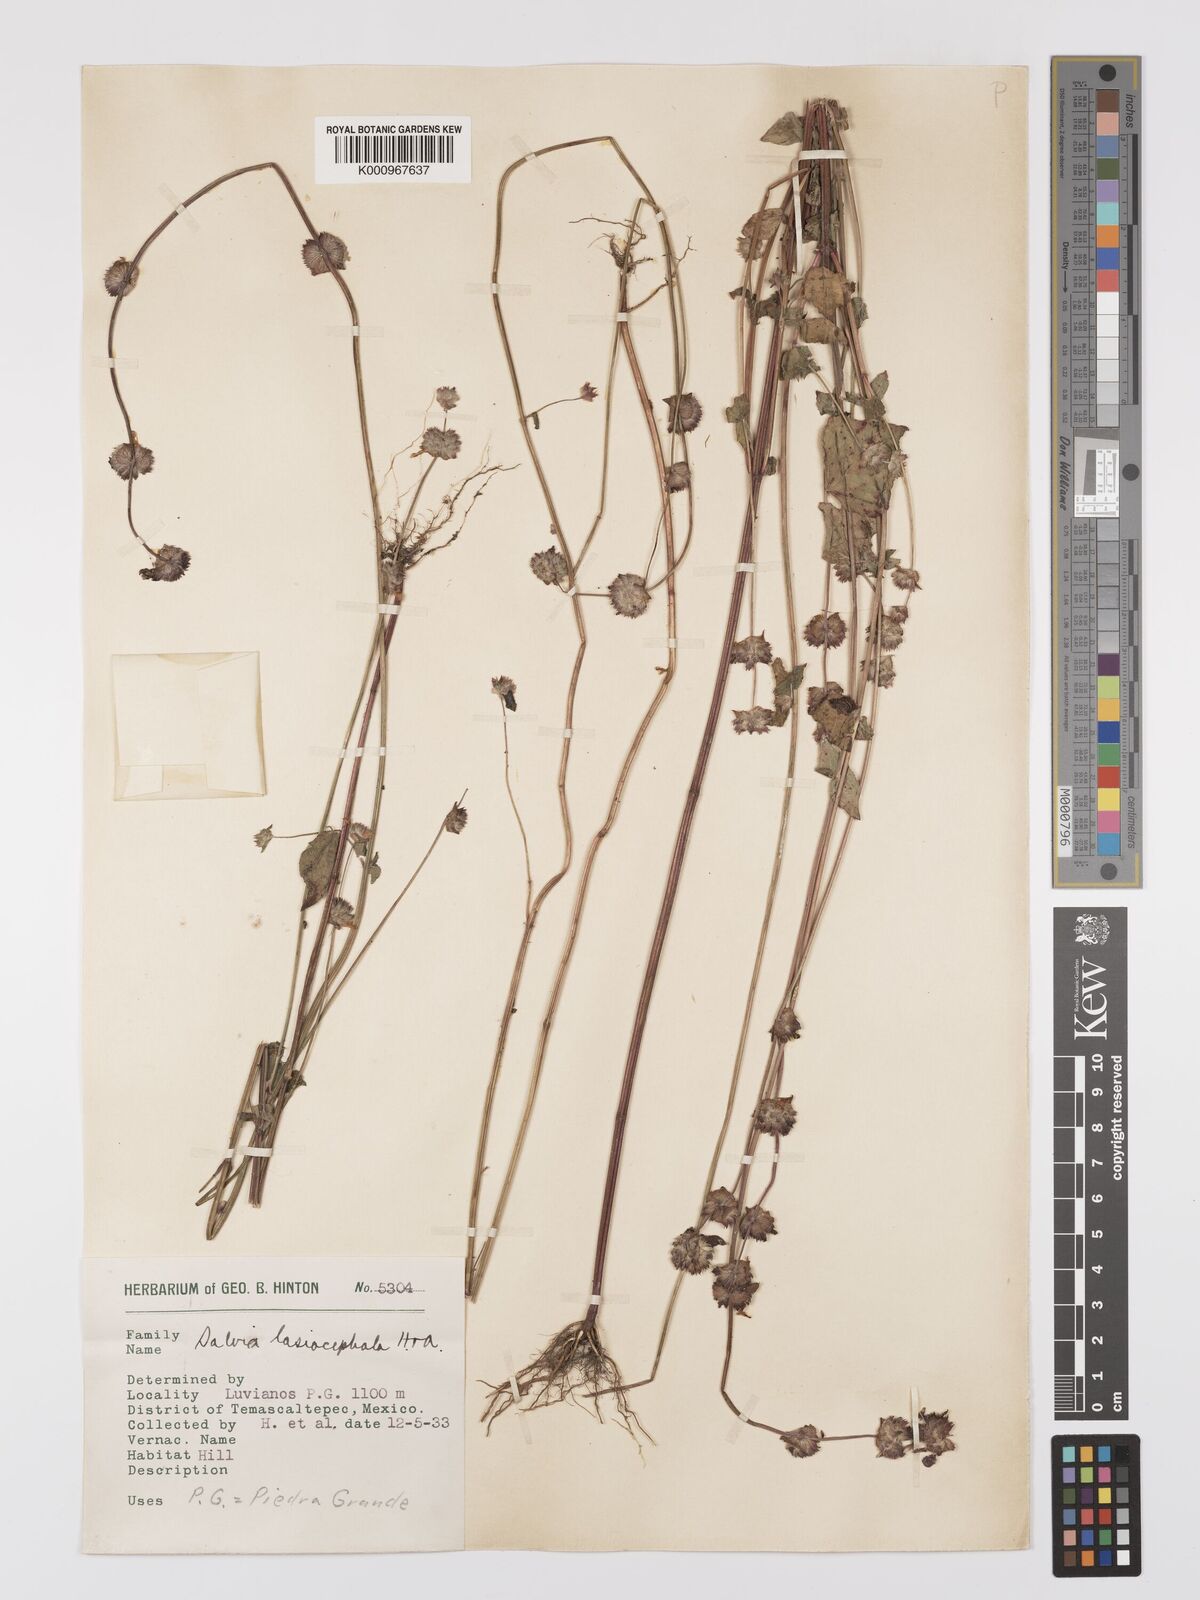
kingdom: Plantae
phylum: Tracheophyta
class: Magnoliopsida
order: Lamiales
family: Lamiaceae
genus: Salvia
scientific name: Salvia lasiocephala
